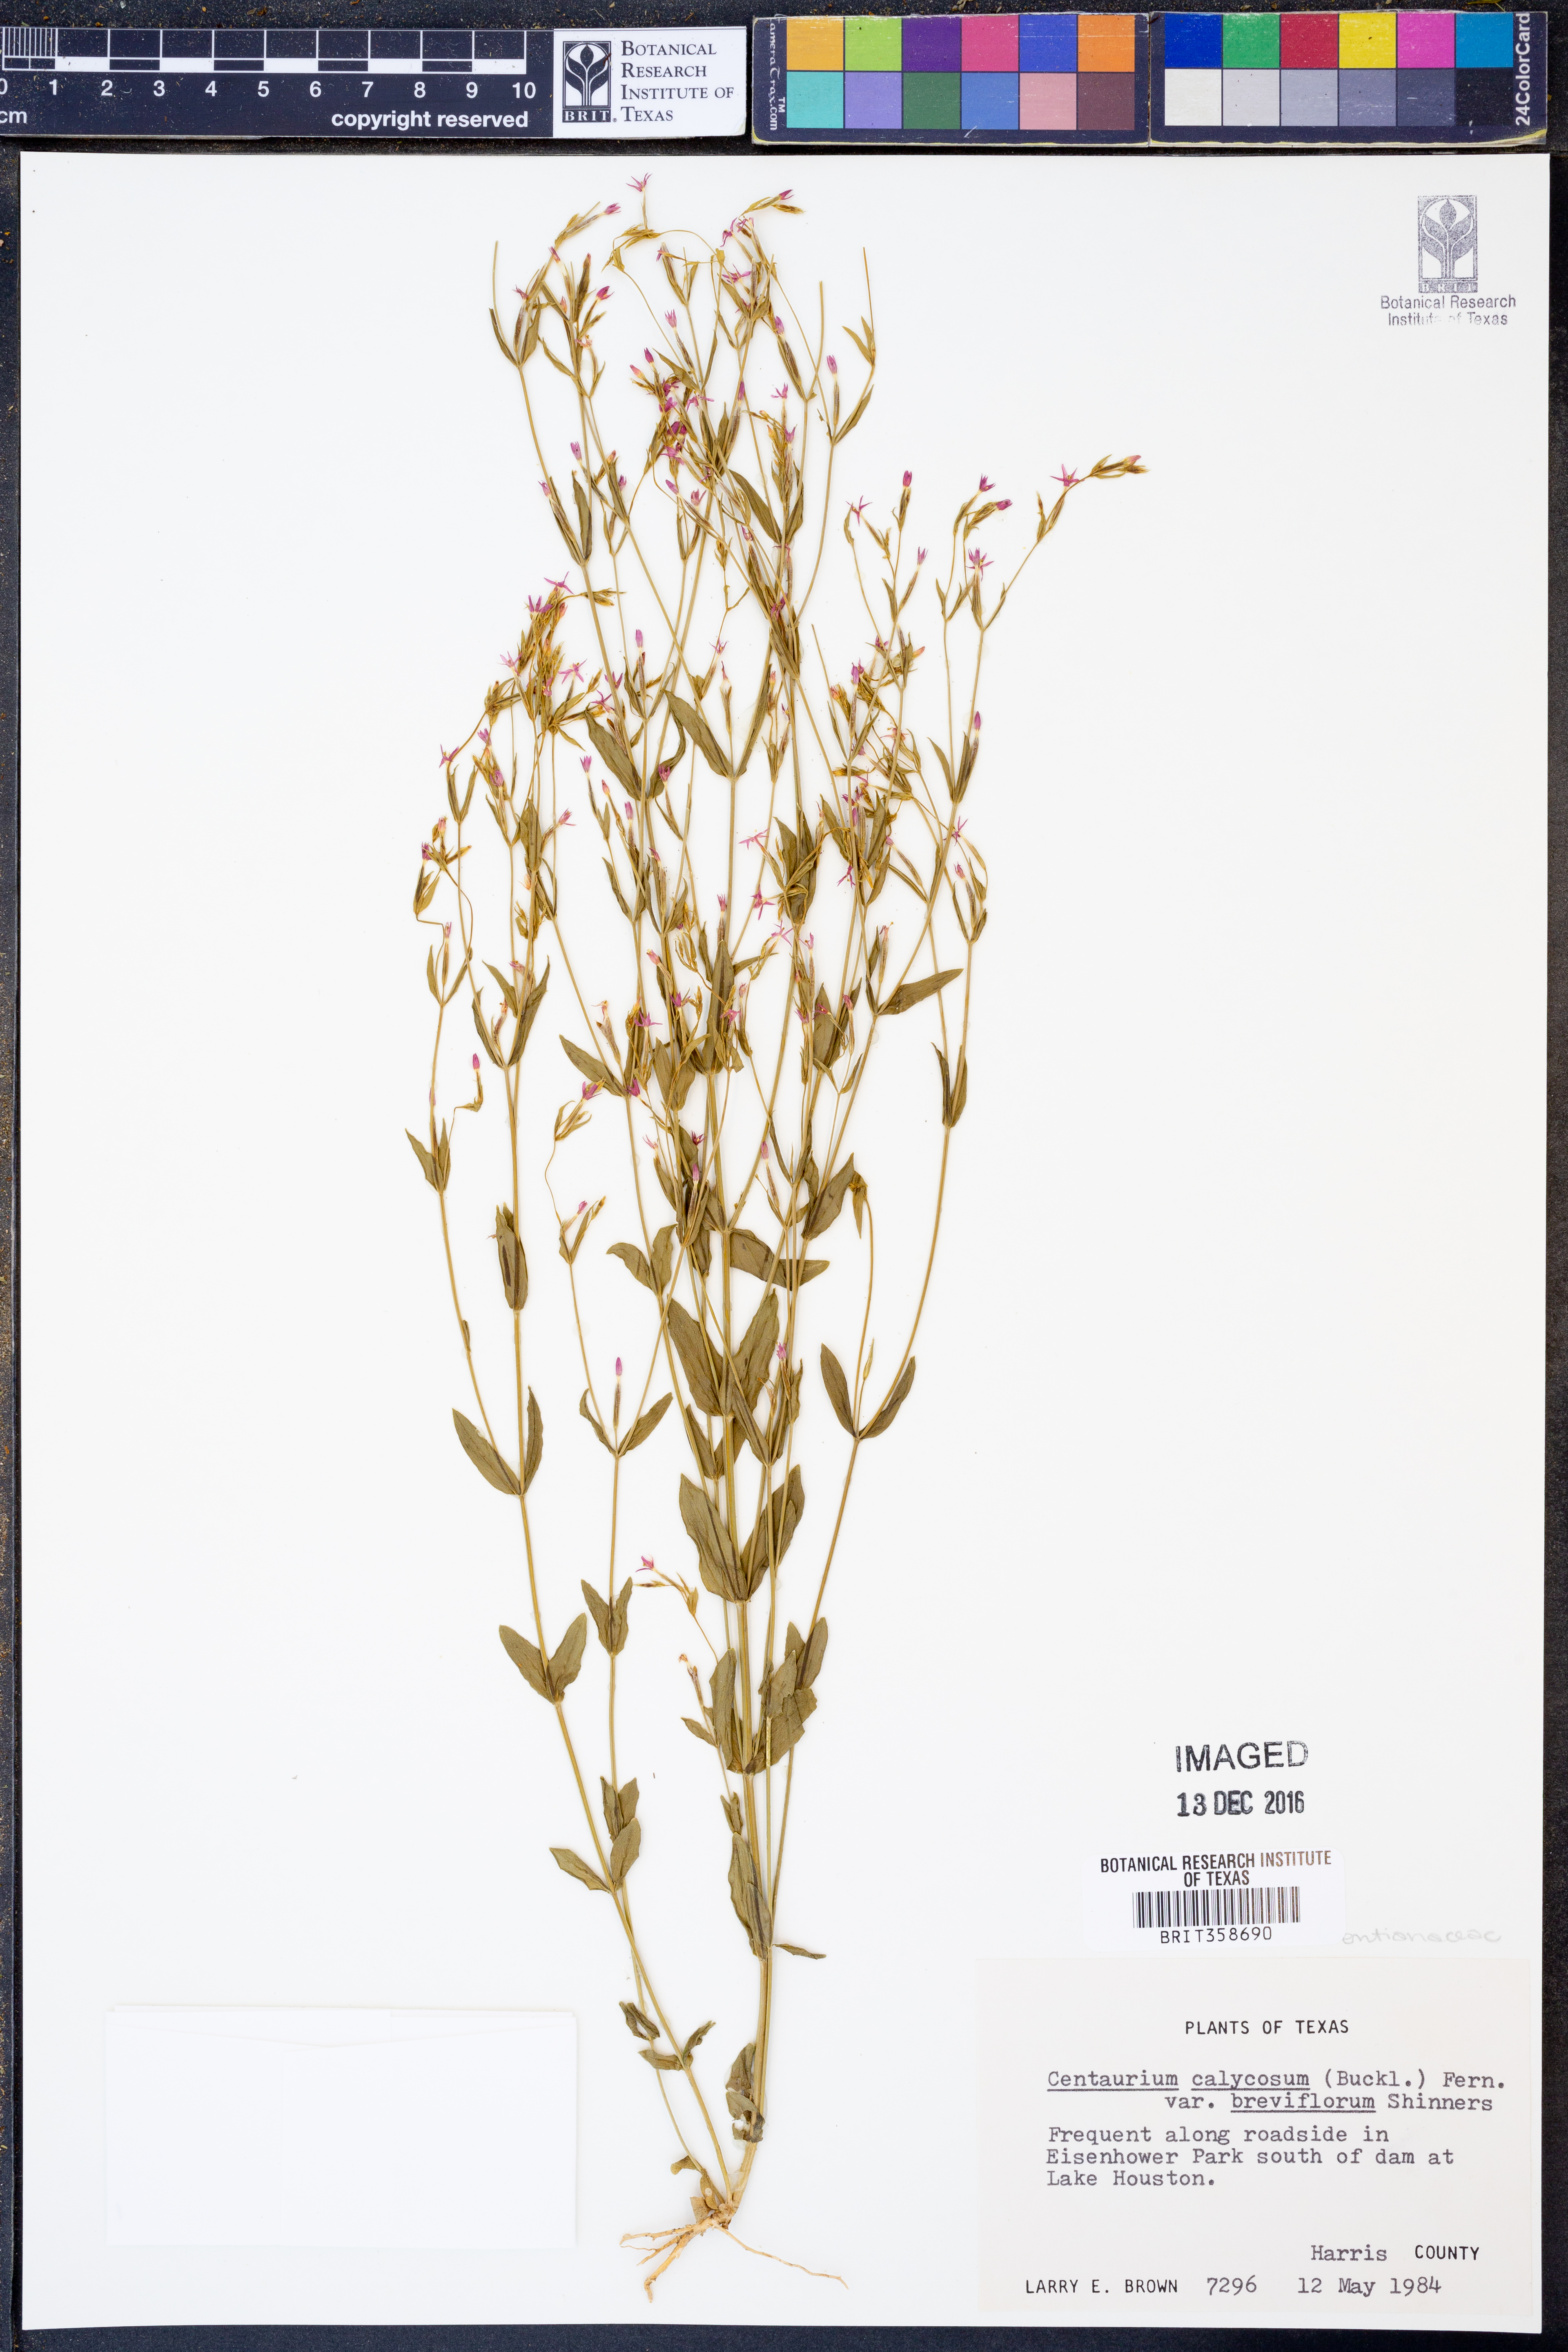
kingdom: Plantae
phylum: Tracheophyta
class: Magnoliopsida
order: Gentianales
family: Gentianaceae
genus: Zeltnera
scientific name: Zeltnera breviflora
